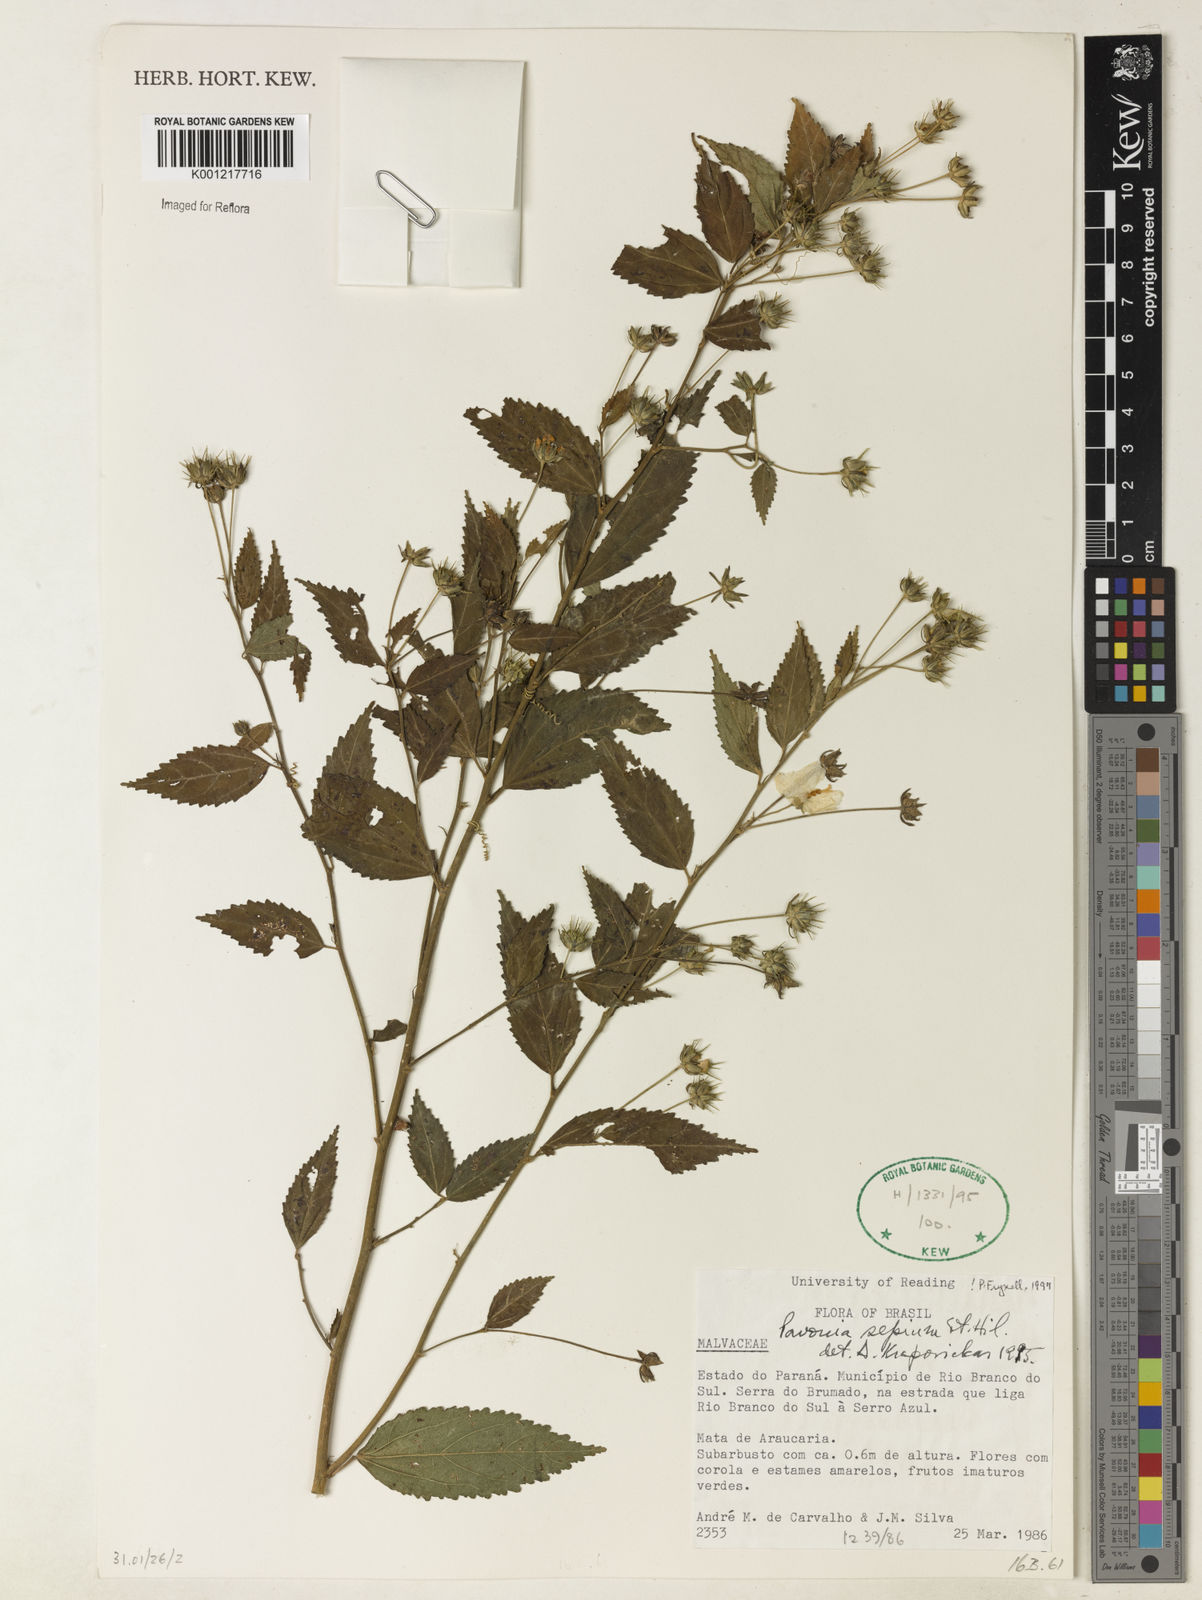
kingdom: Plantae
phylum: Tracheophyta
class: Magnoliopsida
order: Malvales
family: Malvaceae
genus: Pavonia
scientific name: Pavonia sepium
